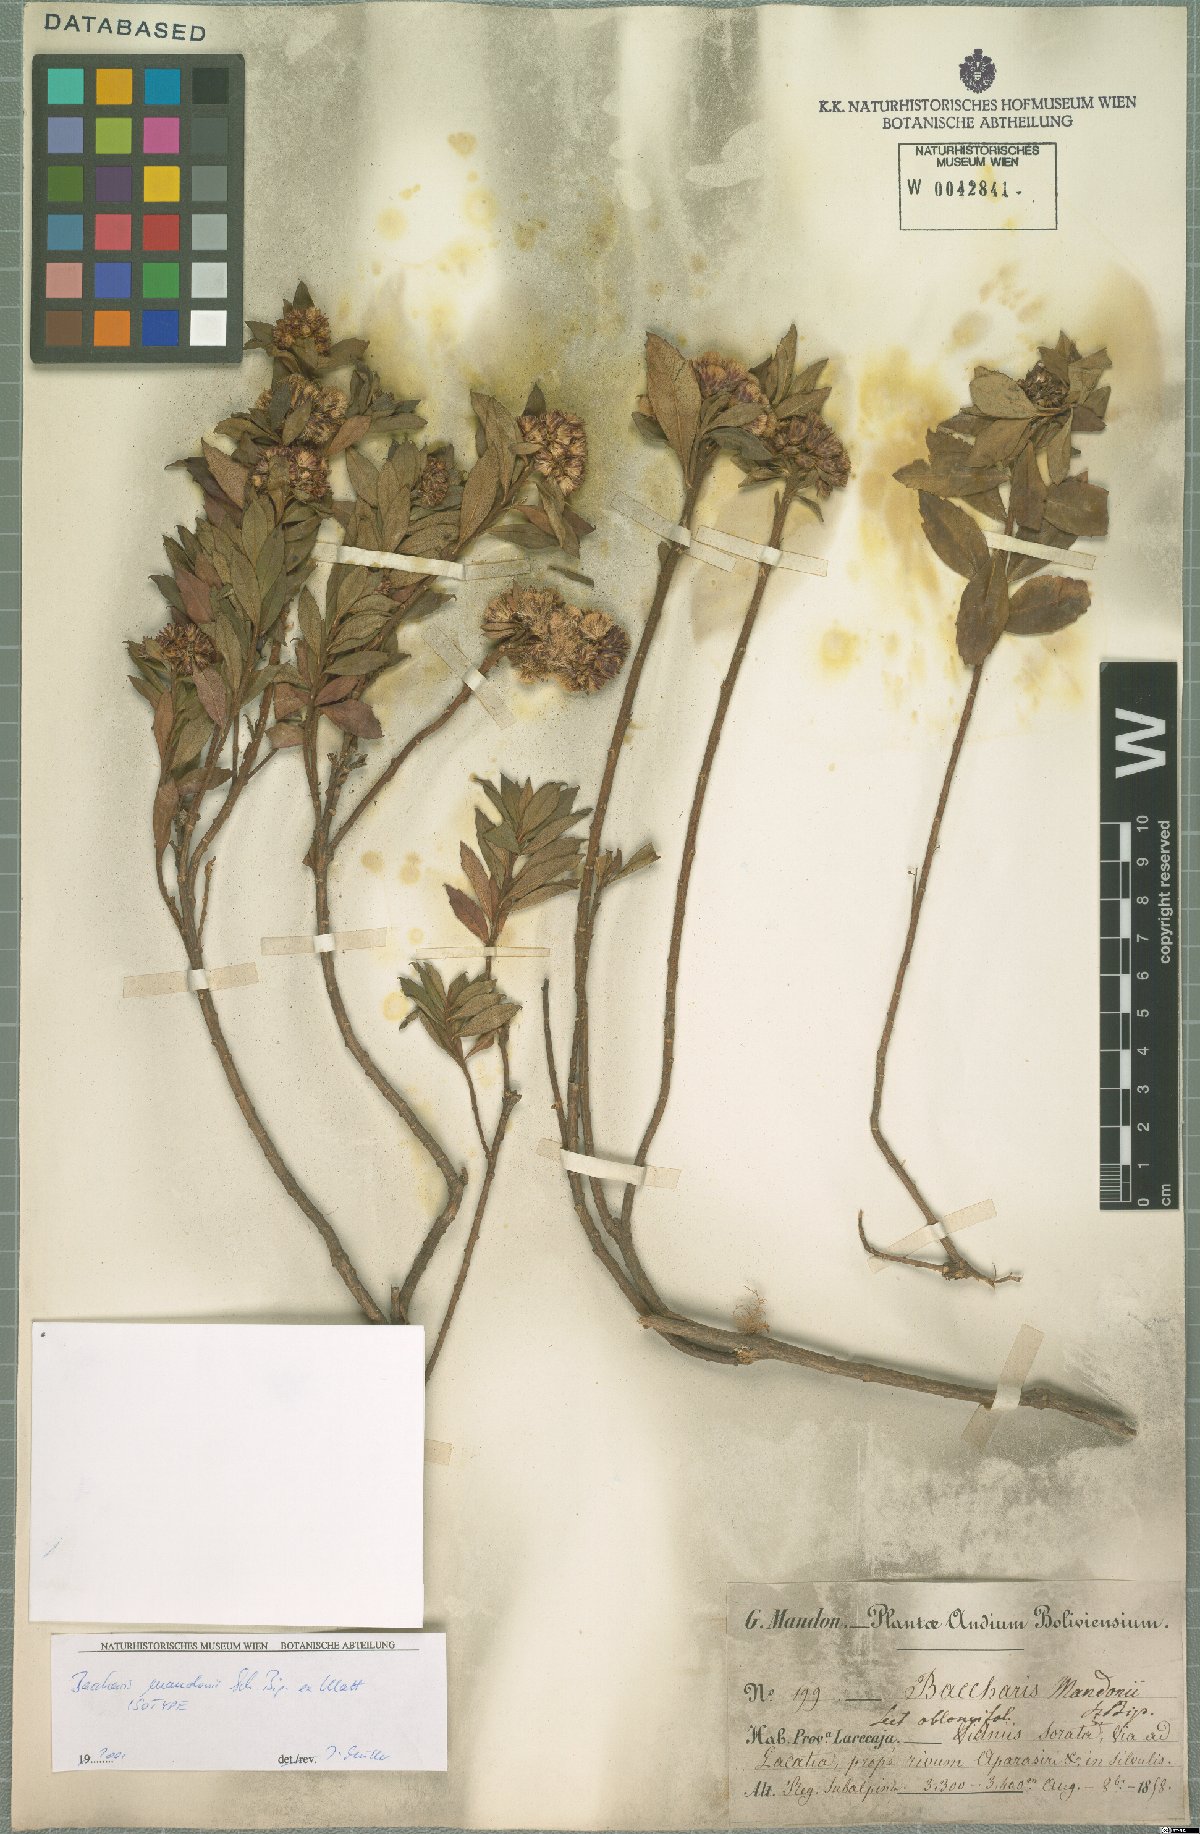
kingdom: Plantae
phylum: Tracheophyta
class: Magnoliopsida
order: Asterales
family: Asteraceae
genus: Baccharis
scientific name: Baccharis mandonii
